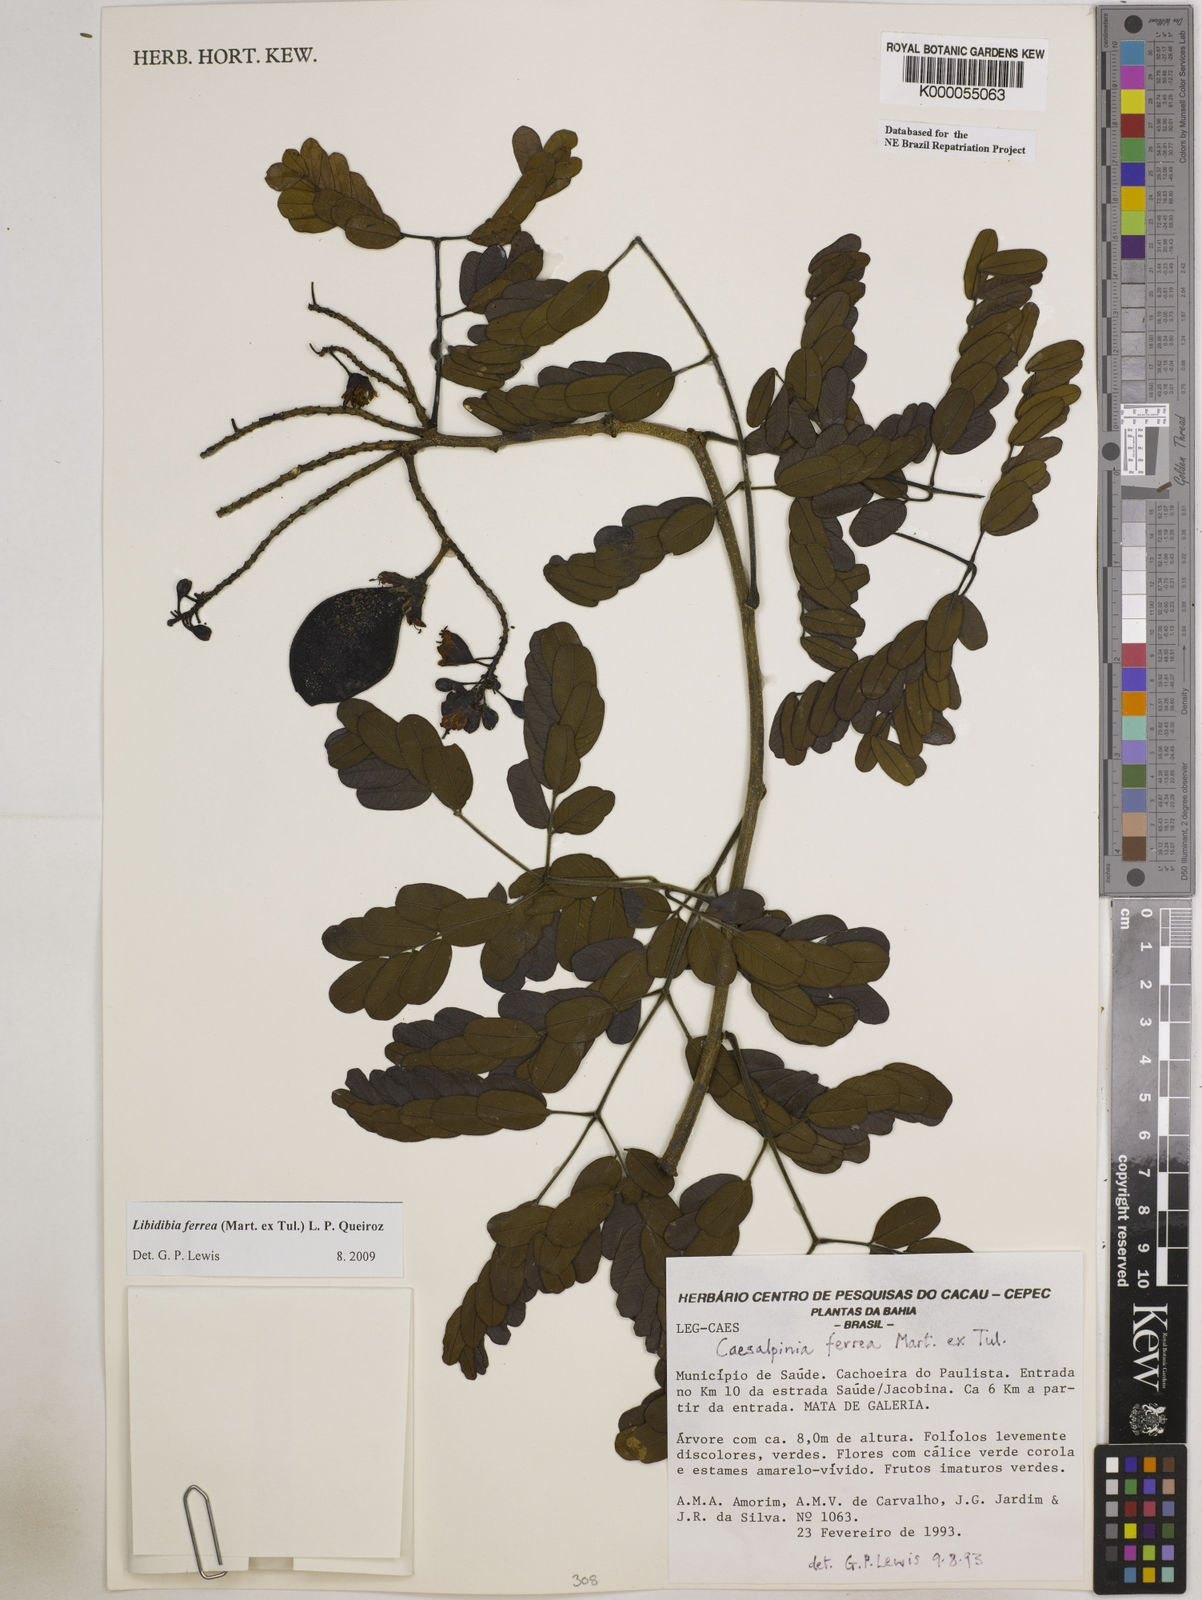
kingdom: Plantae
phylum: Tracheophyta
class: Magnoliopsida
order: Fabales
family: Fabaceae
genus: Libidibia
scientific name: Libidibia ferrea
